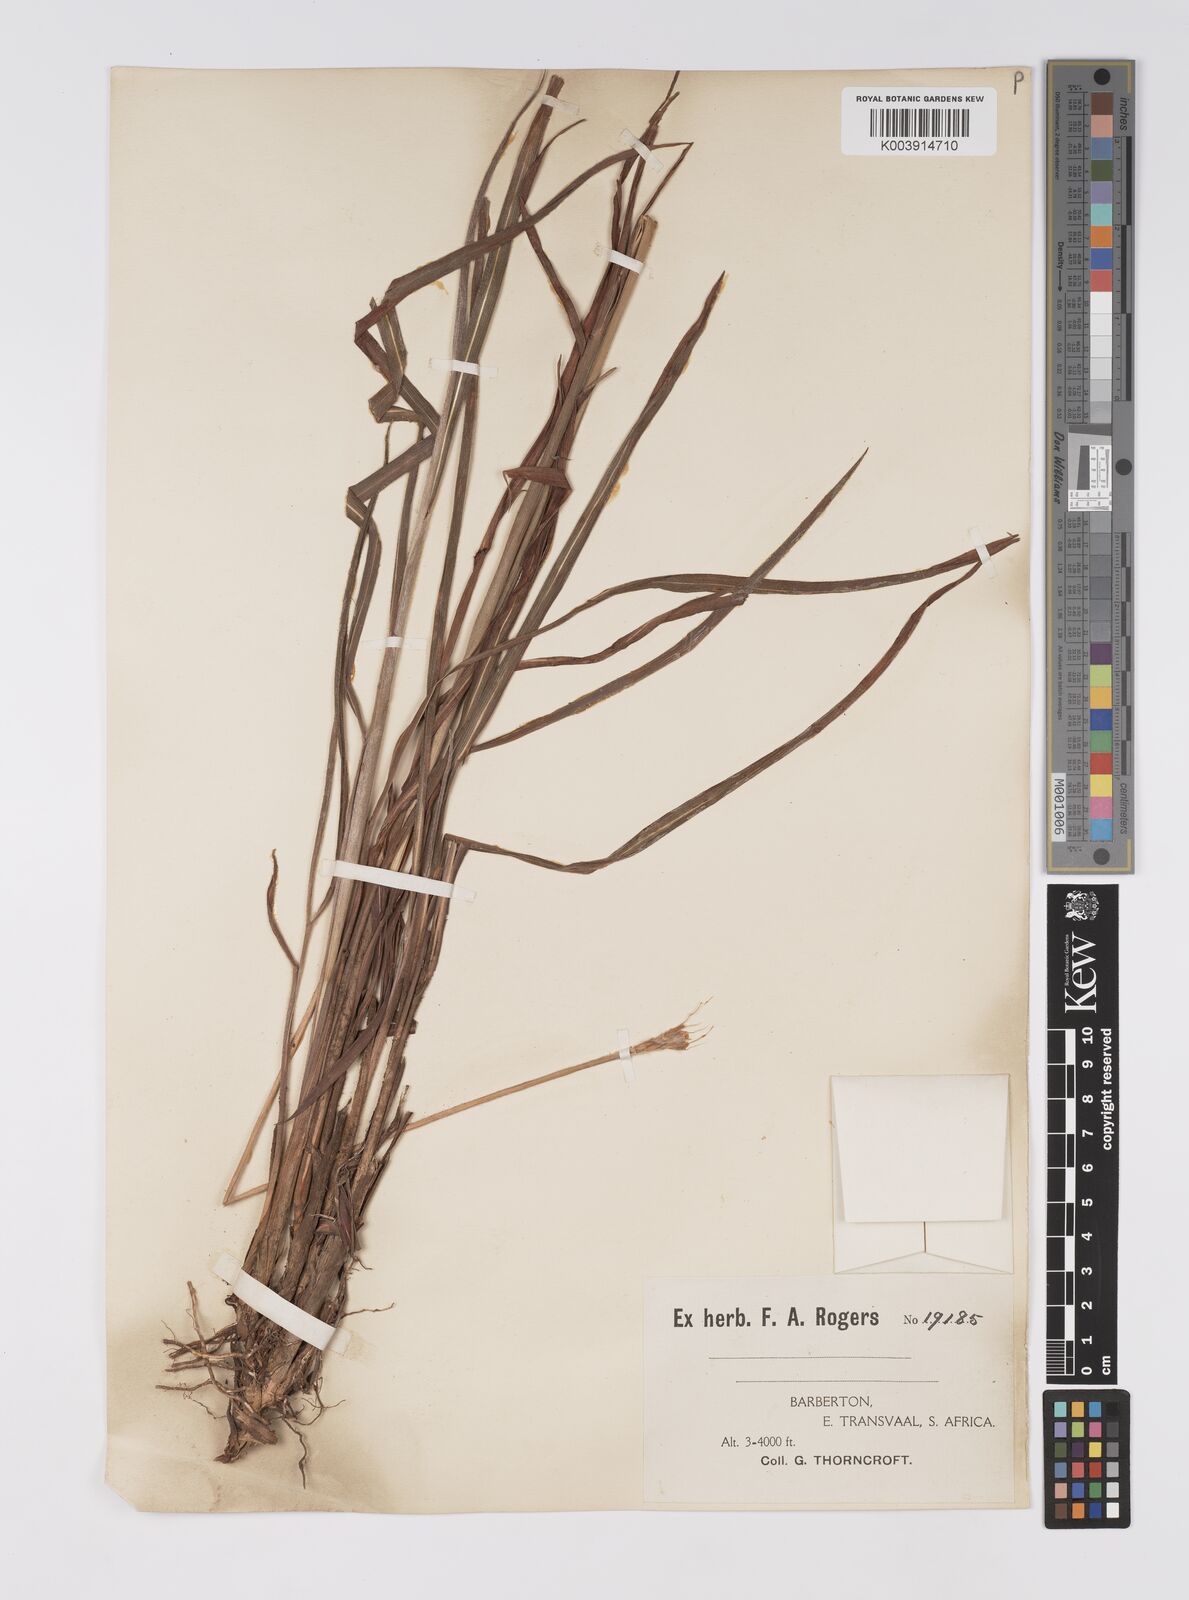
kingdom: Plantae
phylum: Tracheophyta
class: Liliopsida
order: Poales
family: Poaceae
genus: Eulalia
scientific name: Eulalia villosa
